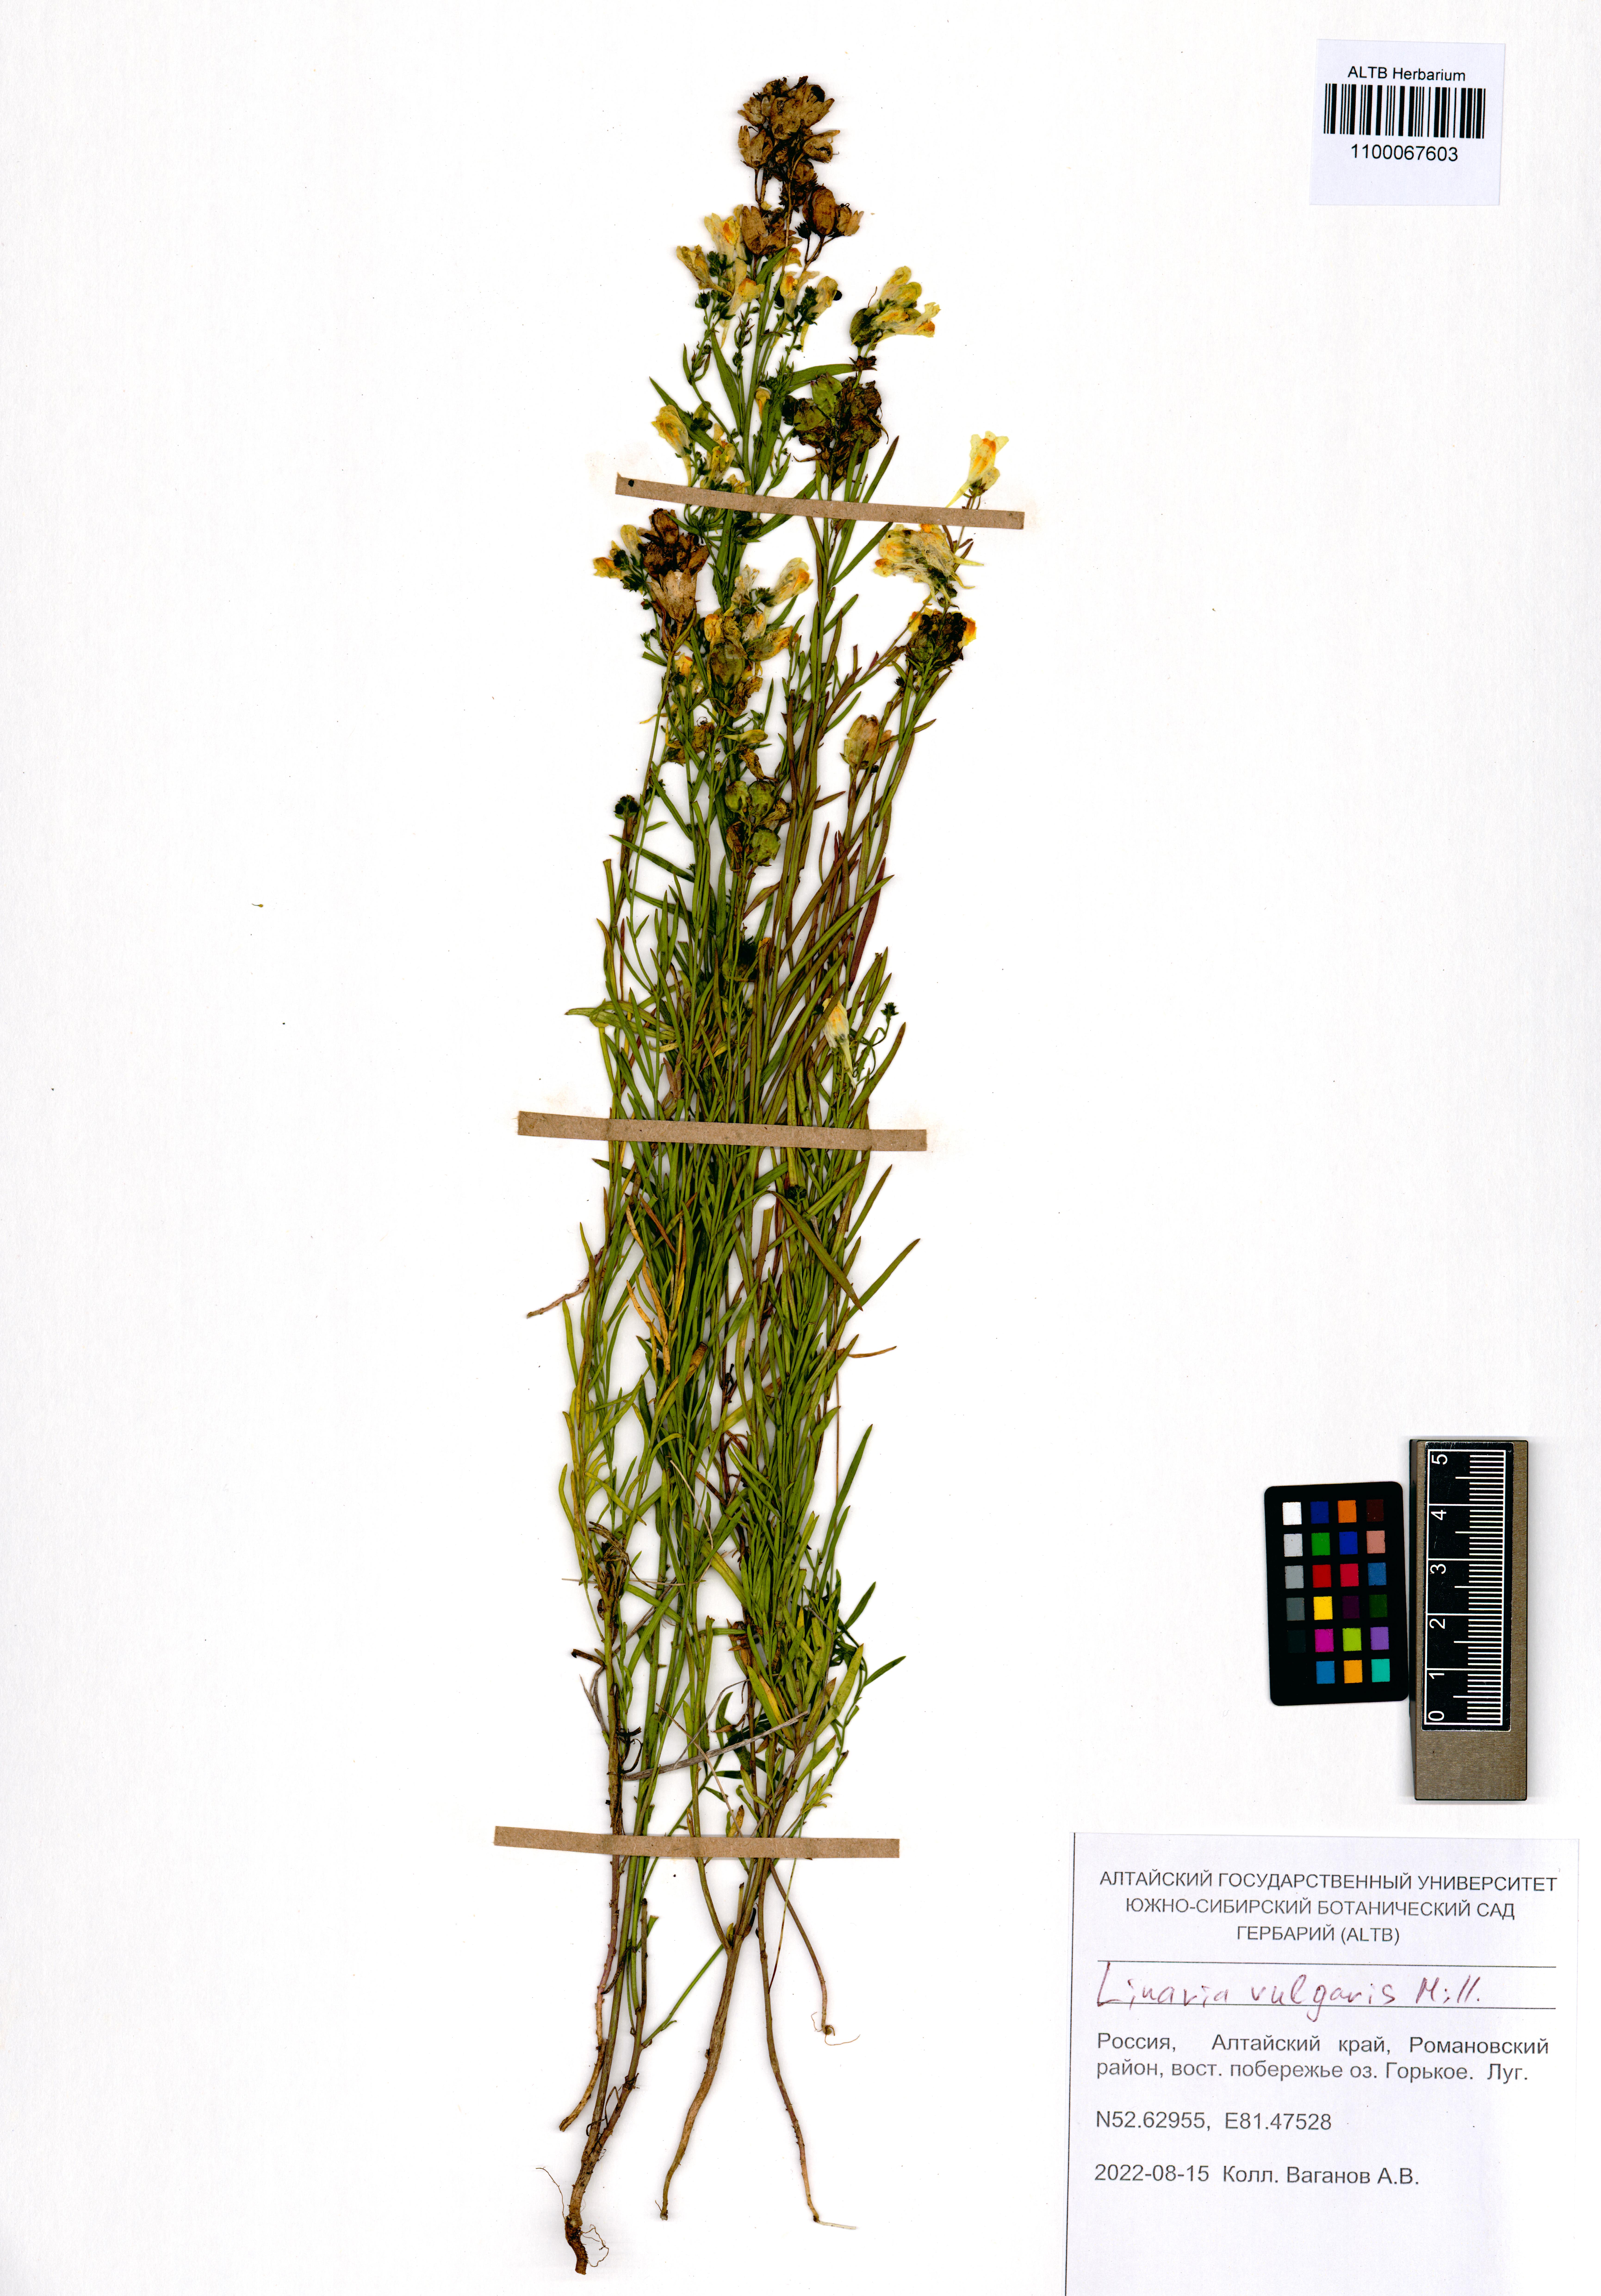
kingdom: Plantae
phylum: Tracheophyta
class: Magnoliopsida
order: Lamiales
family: Plantaginaceae
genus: Linaria
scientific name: Linaria vulgaris
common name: Butter and eggs
